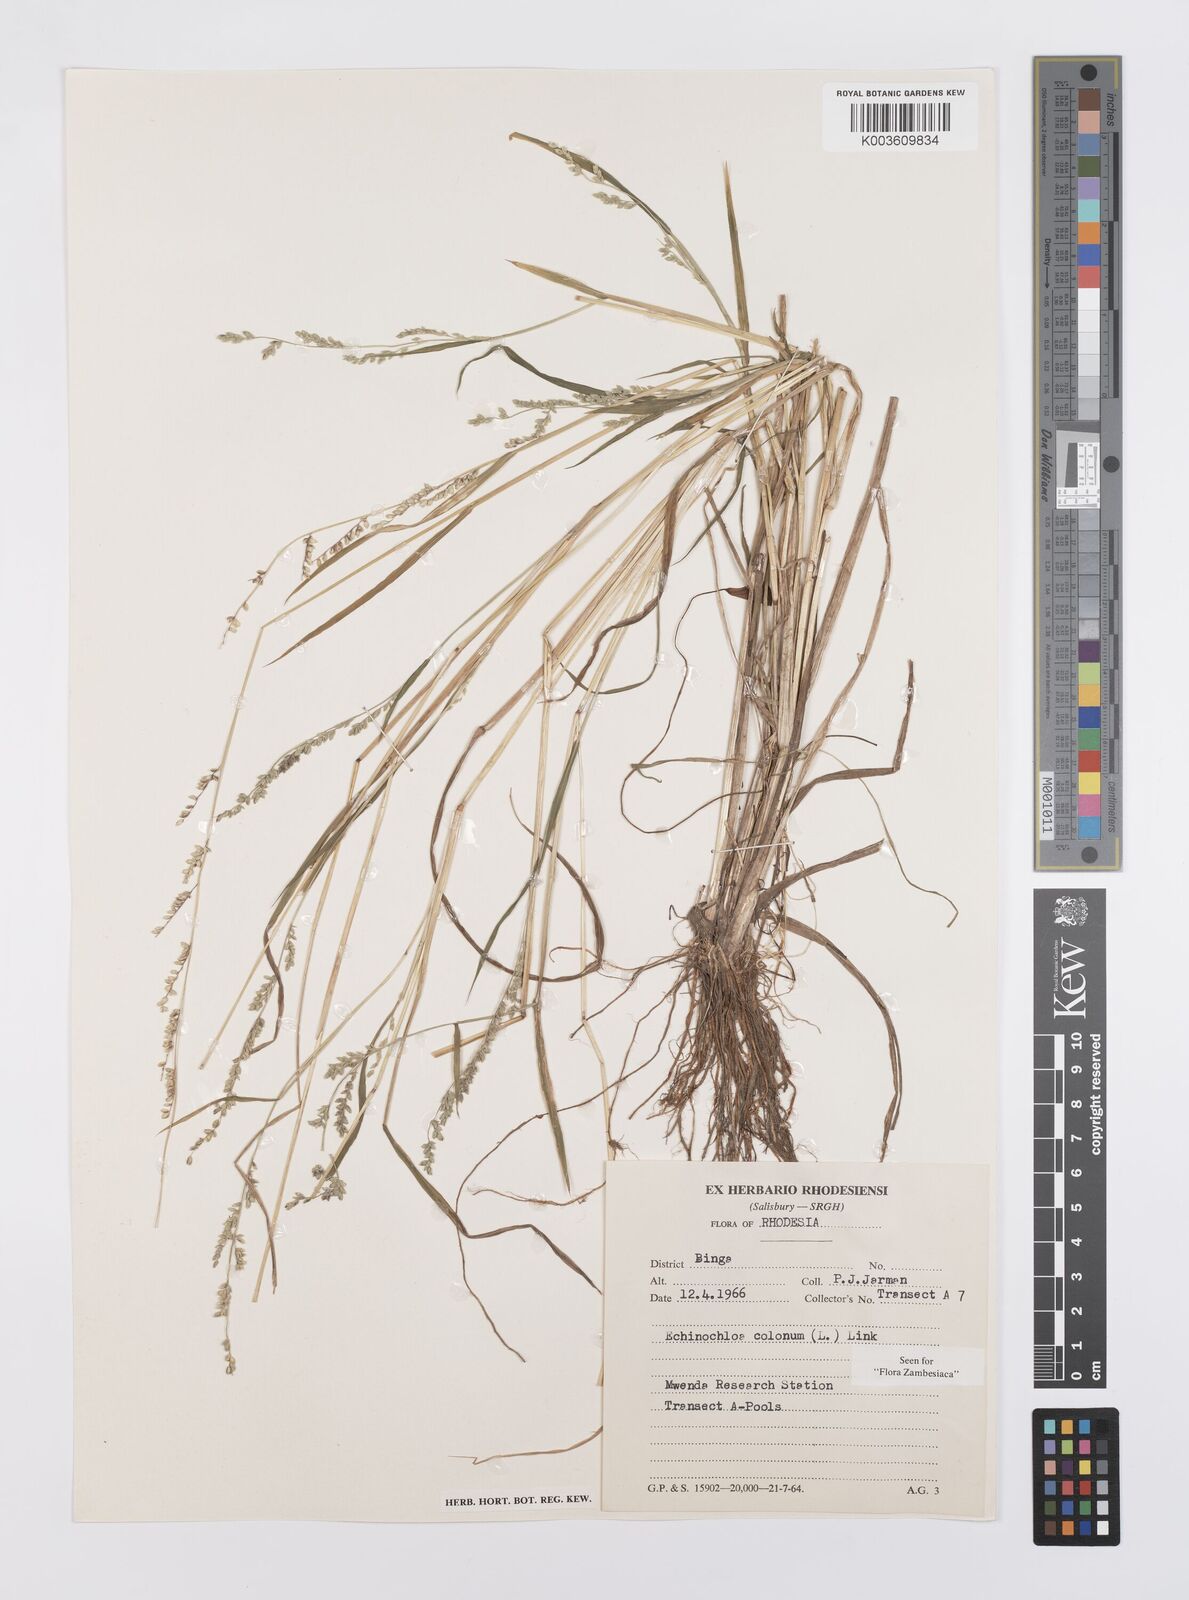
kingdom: Plantae
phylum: Tracheophyta
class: Liliopsida
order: Poales
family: Poaceae
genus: Echinochloa
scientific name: Echinochloa colonum
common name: Jungle rice
